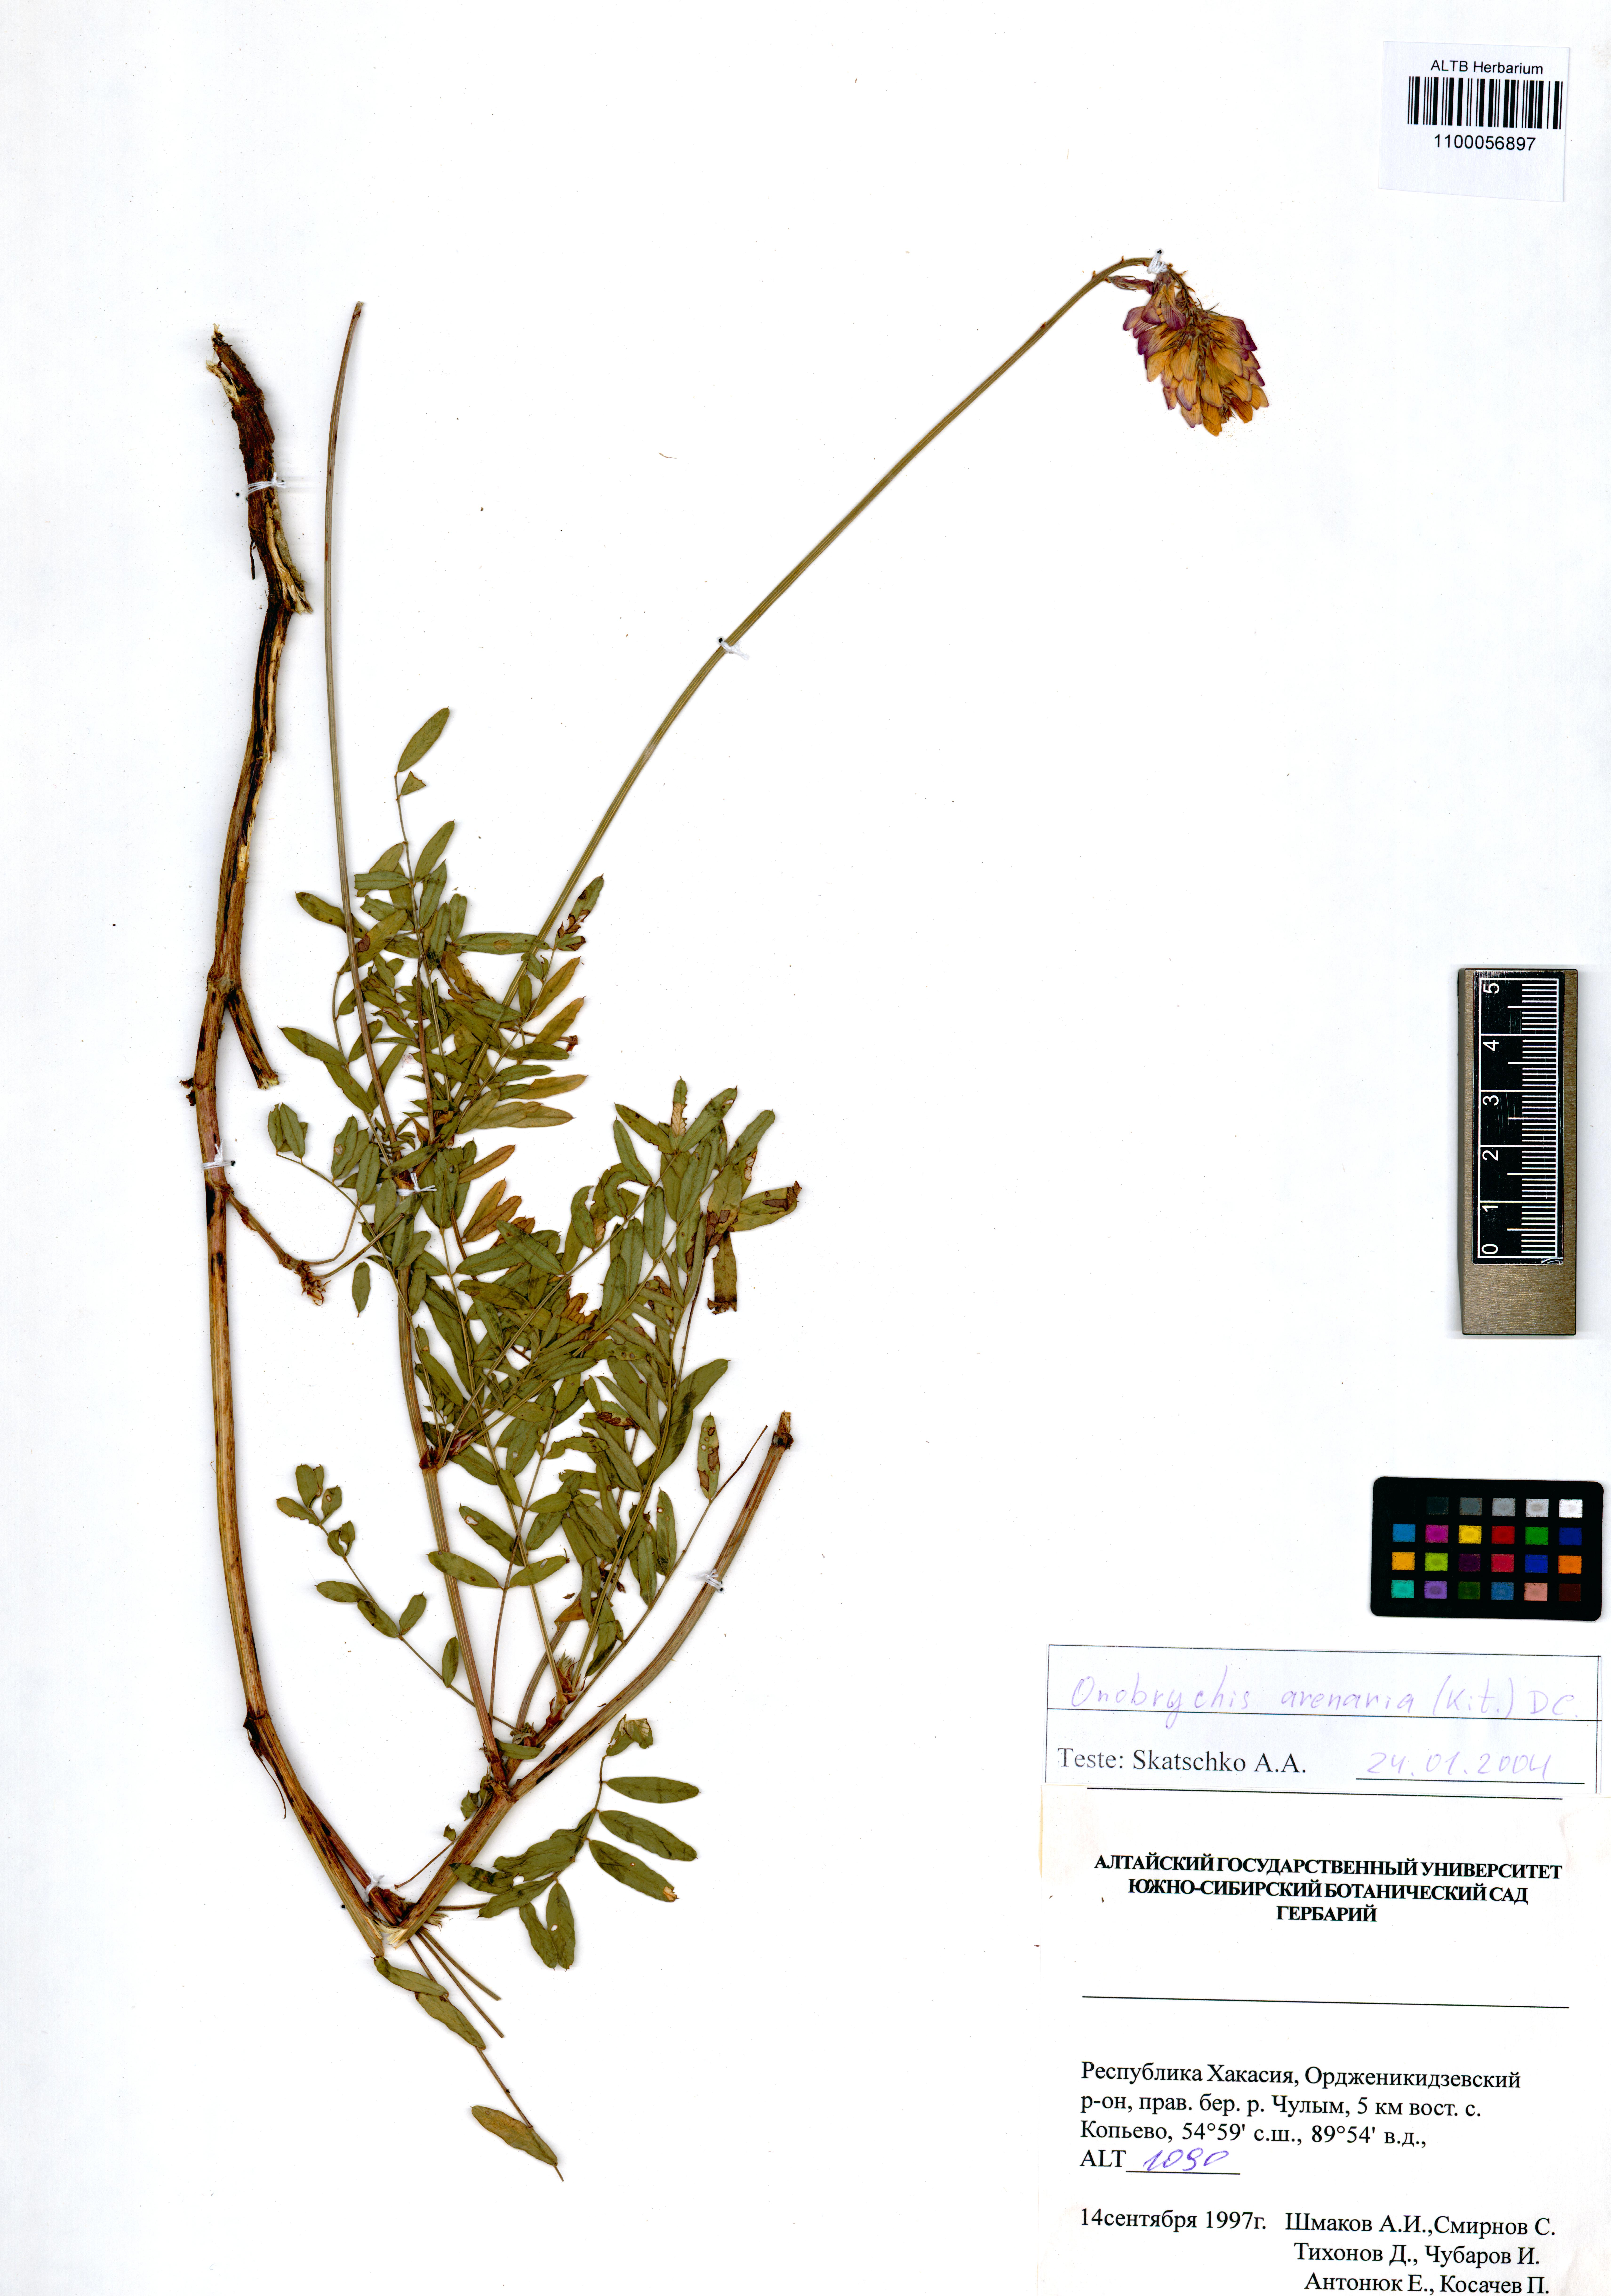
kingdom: Plantae
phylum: Tracheophyta
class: Magnoliopsida
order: Fabales
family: Fabaceae
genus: Onobrychis
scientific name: Onobrychis arenaria
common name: Sand esparcet
